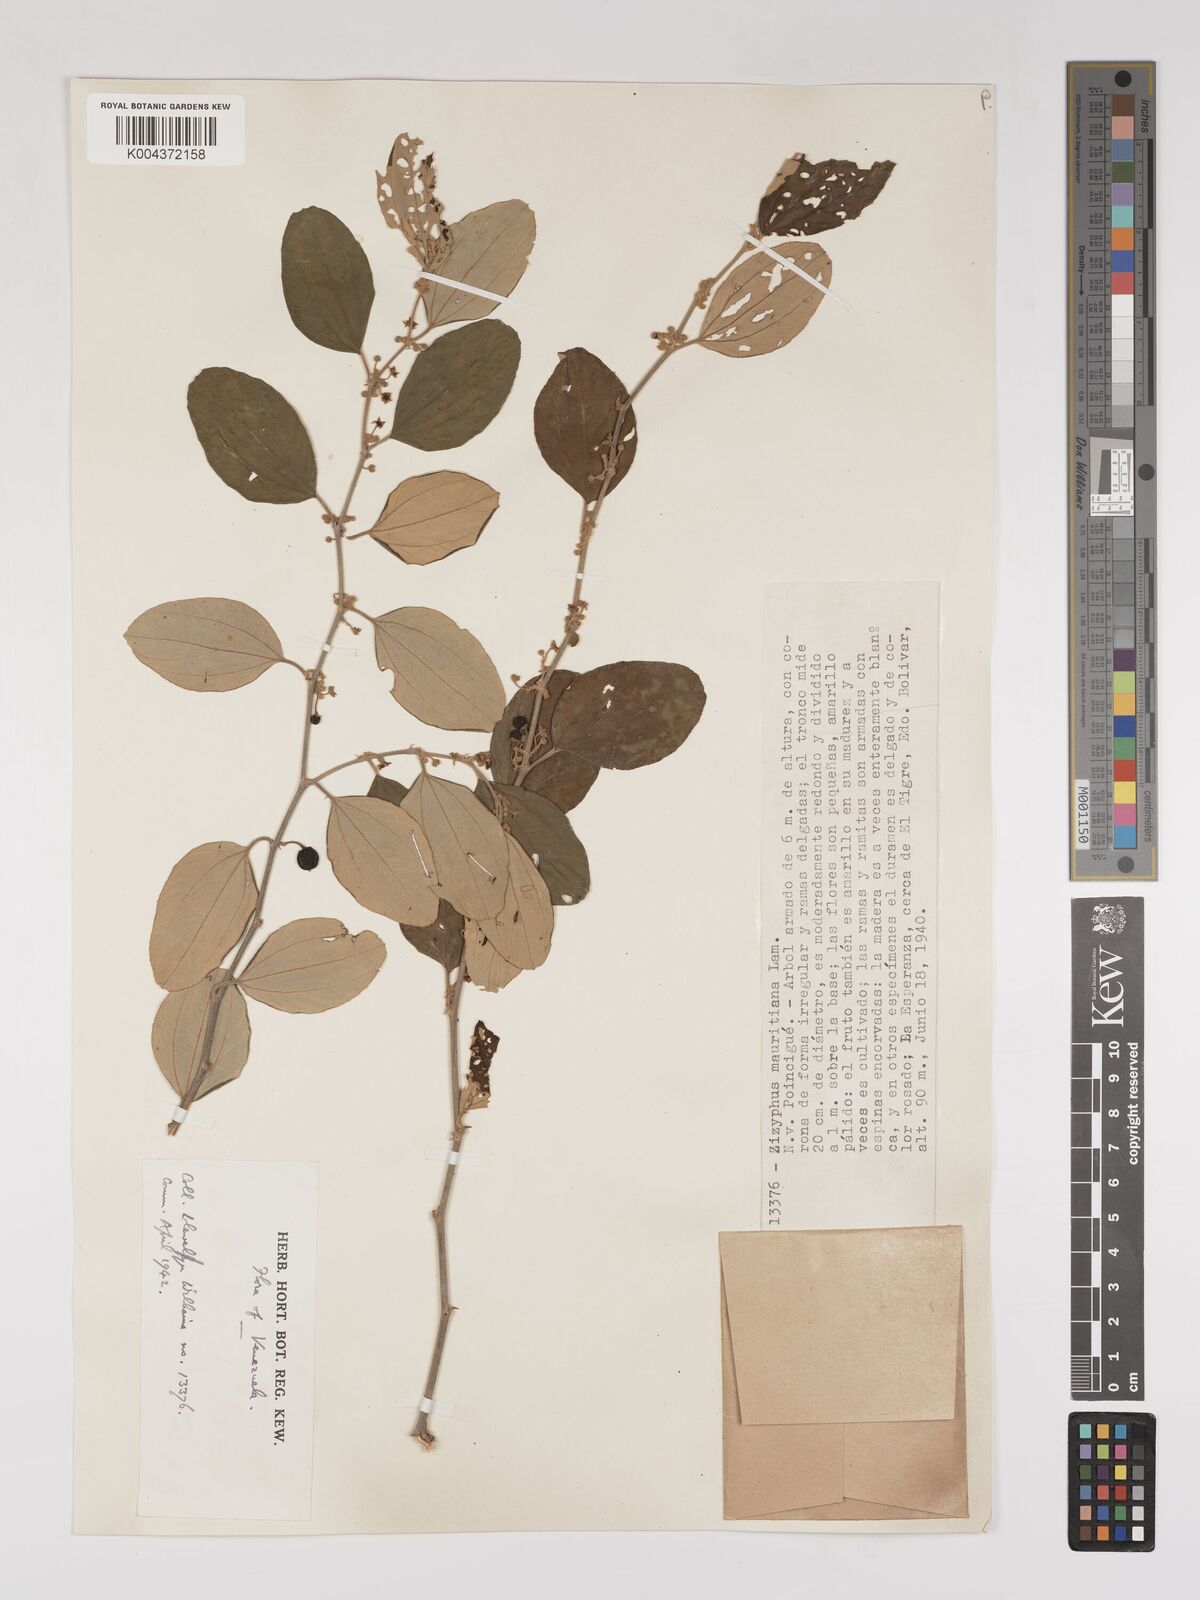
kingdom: Plantae
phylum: Tracheophyta
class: Magnoliopsida
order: Rosales
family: Rhamnaceae
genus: Ziziphus
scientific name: Ziziphus mauritiana
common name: Indian jujube
